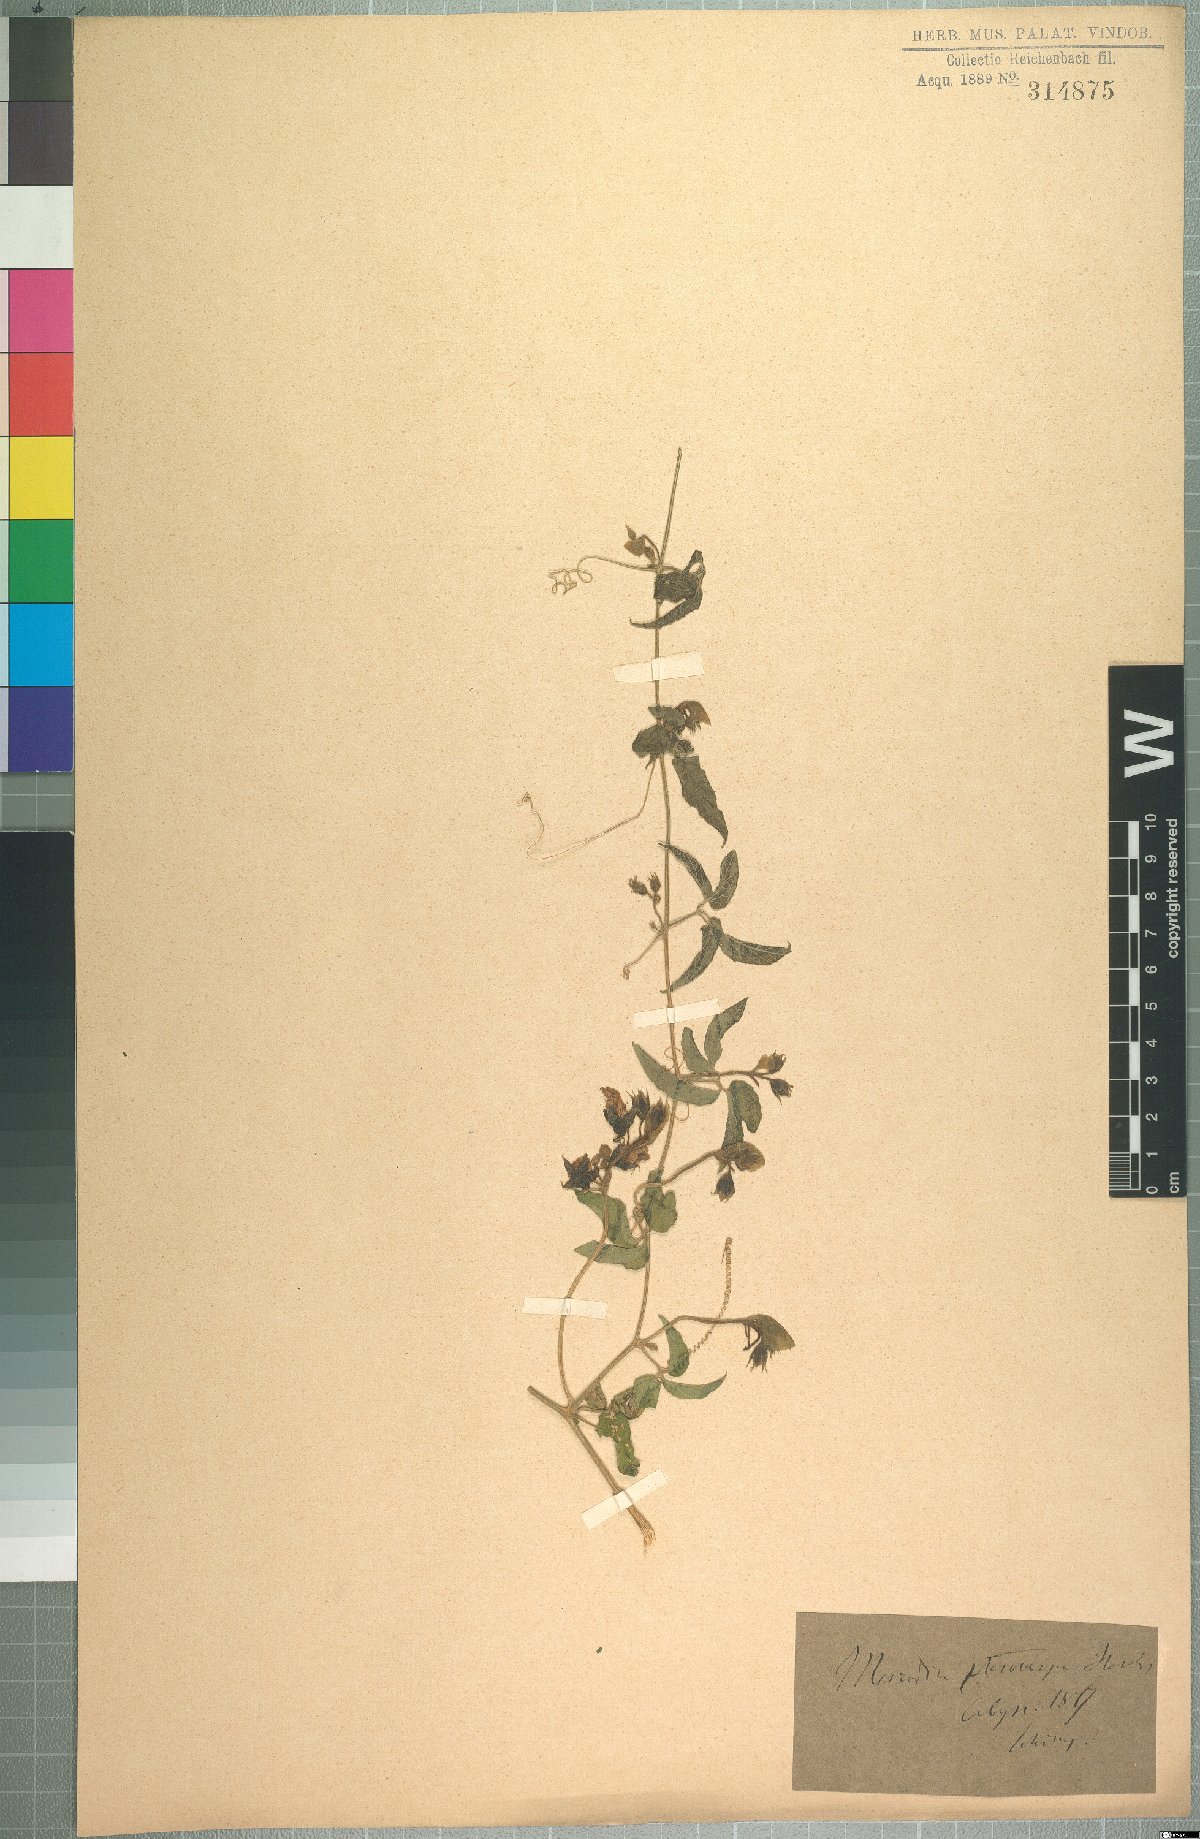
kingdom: Plantae
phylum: Tracheophyta
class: Magnoliopsida
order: Cucurbitales
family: Cucurbitaceae
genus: Momordica
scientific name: Momordica pterocarpa
